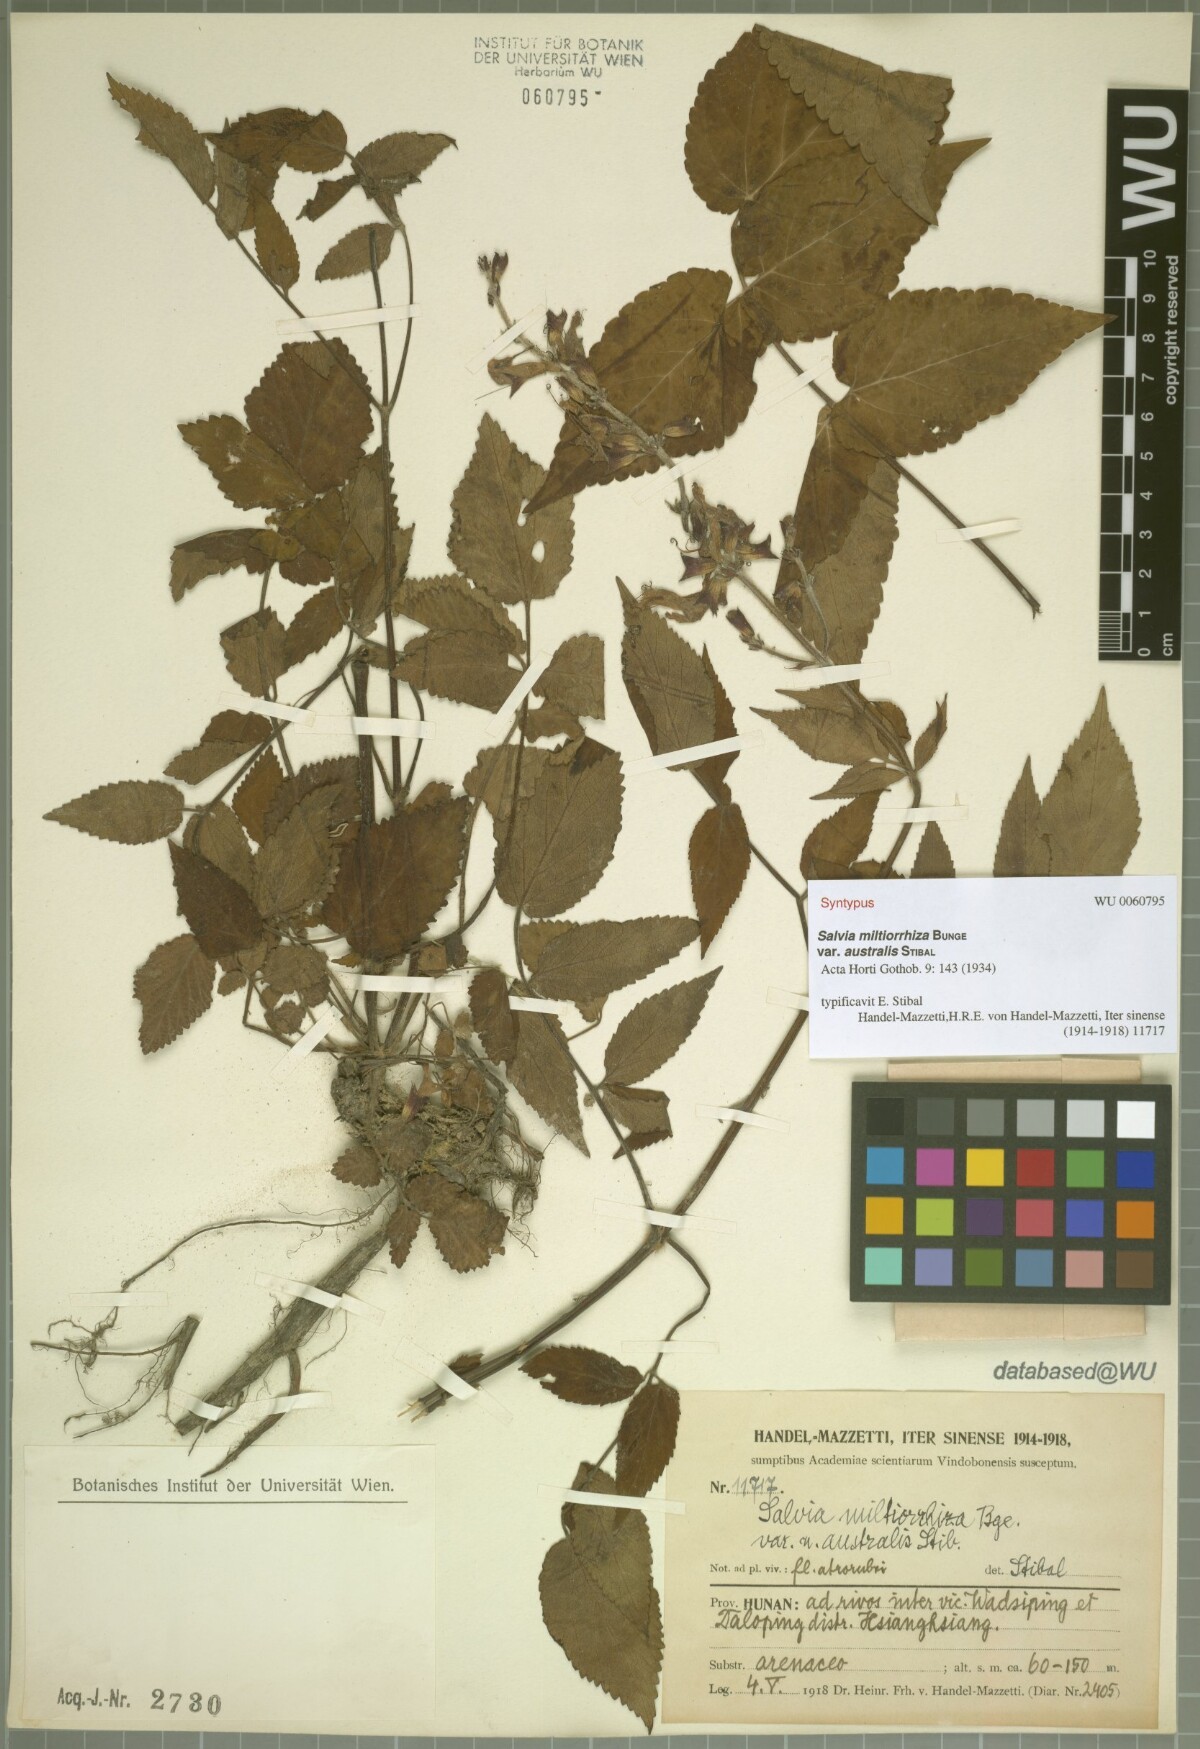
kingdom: Plantae
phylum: Tracheophyta
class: Magnoliopsida
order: Lamiales
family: Lamiaceae
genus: Salvia
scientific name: Salvia bowleyana
